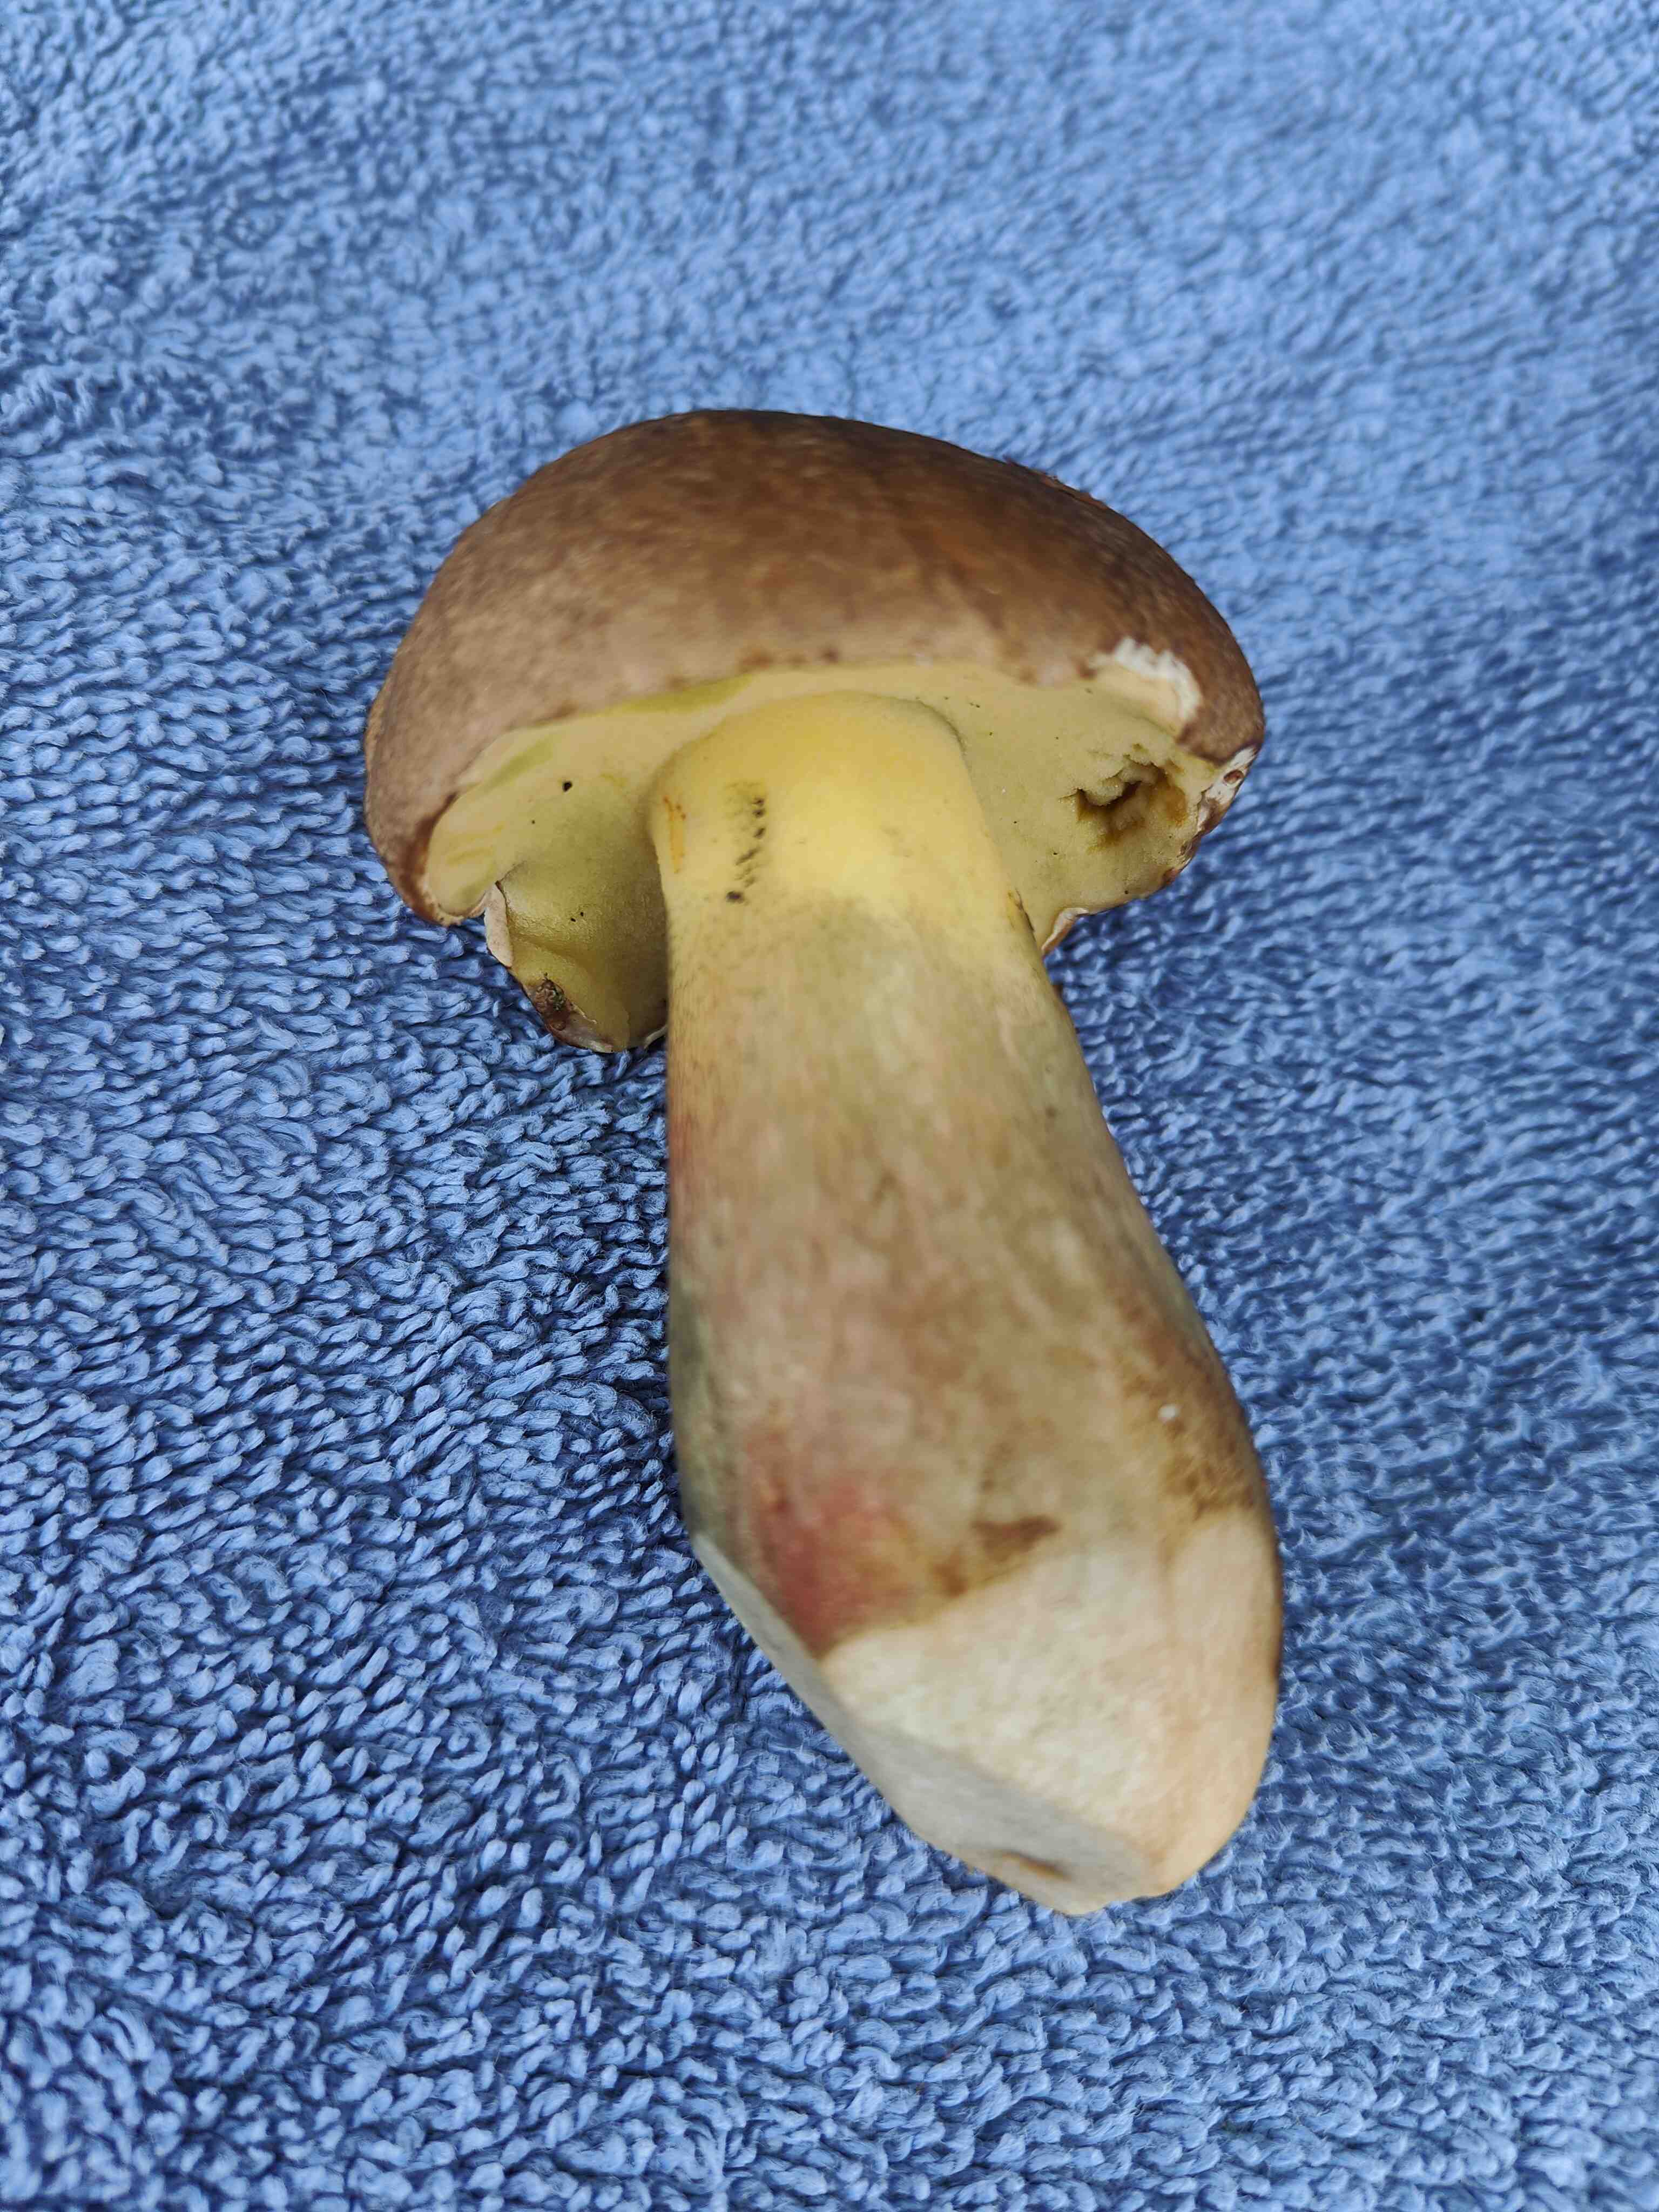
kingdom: Fungi
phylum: Basidiomycota
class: Agaricomycetes
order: Boletales
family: Boletaceae
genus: Caloboletus
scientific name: Caloboletus calopus
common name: skønfodet rørhat
